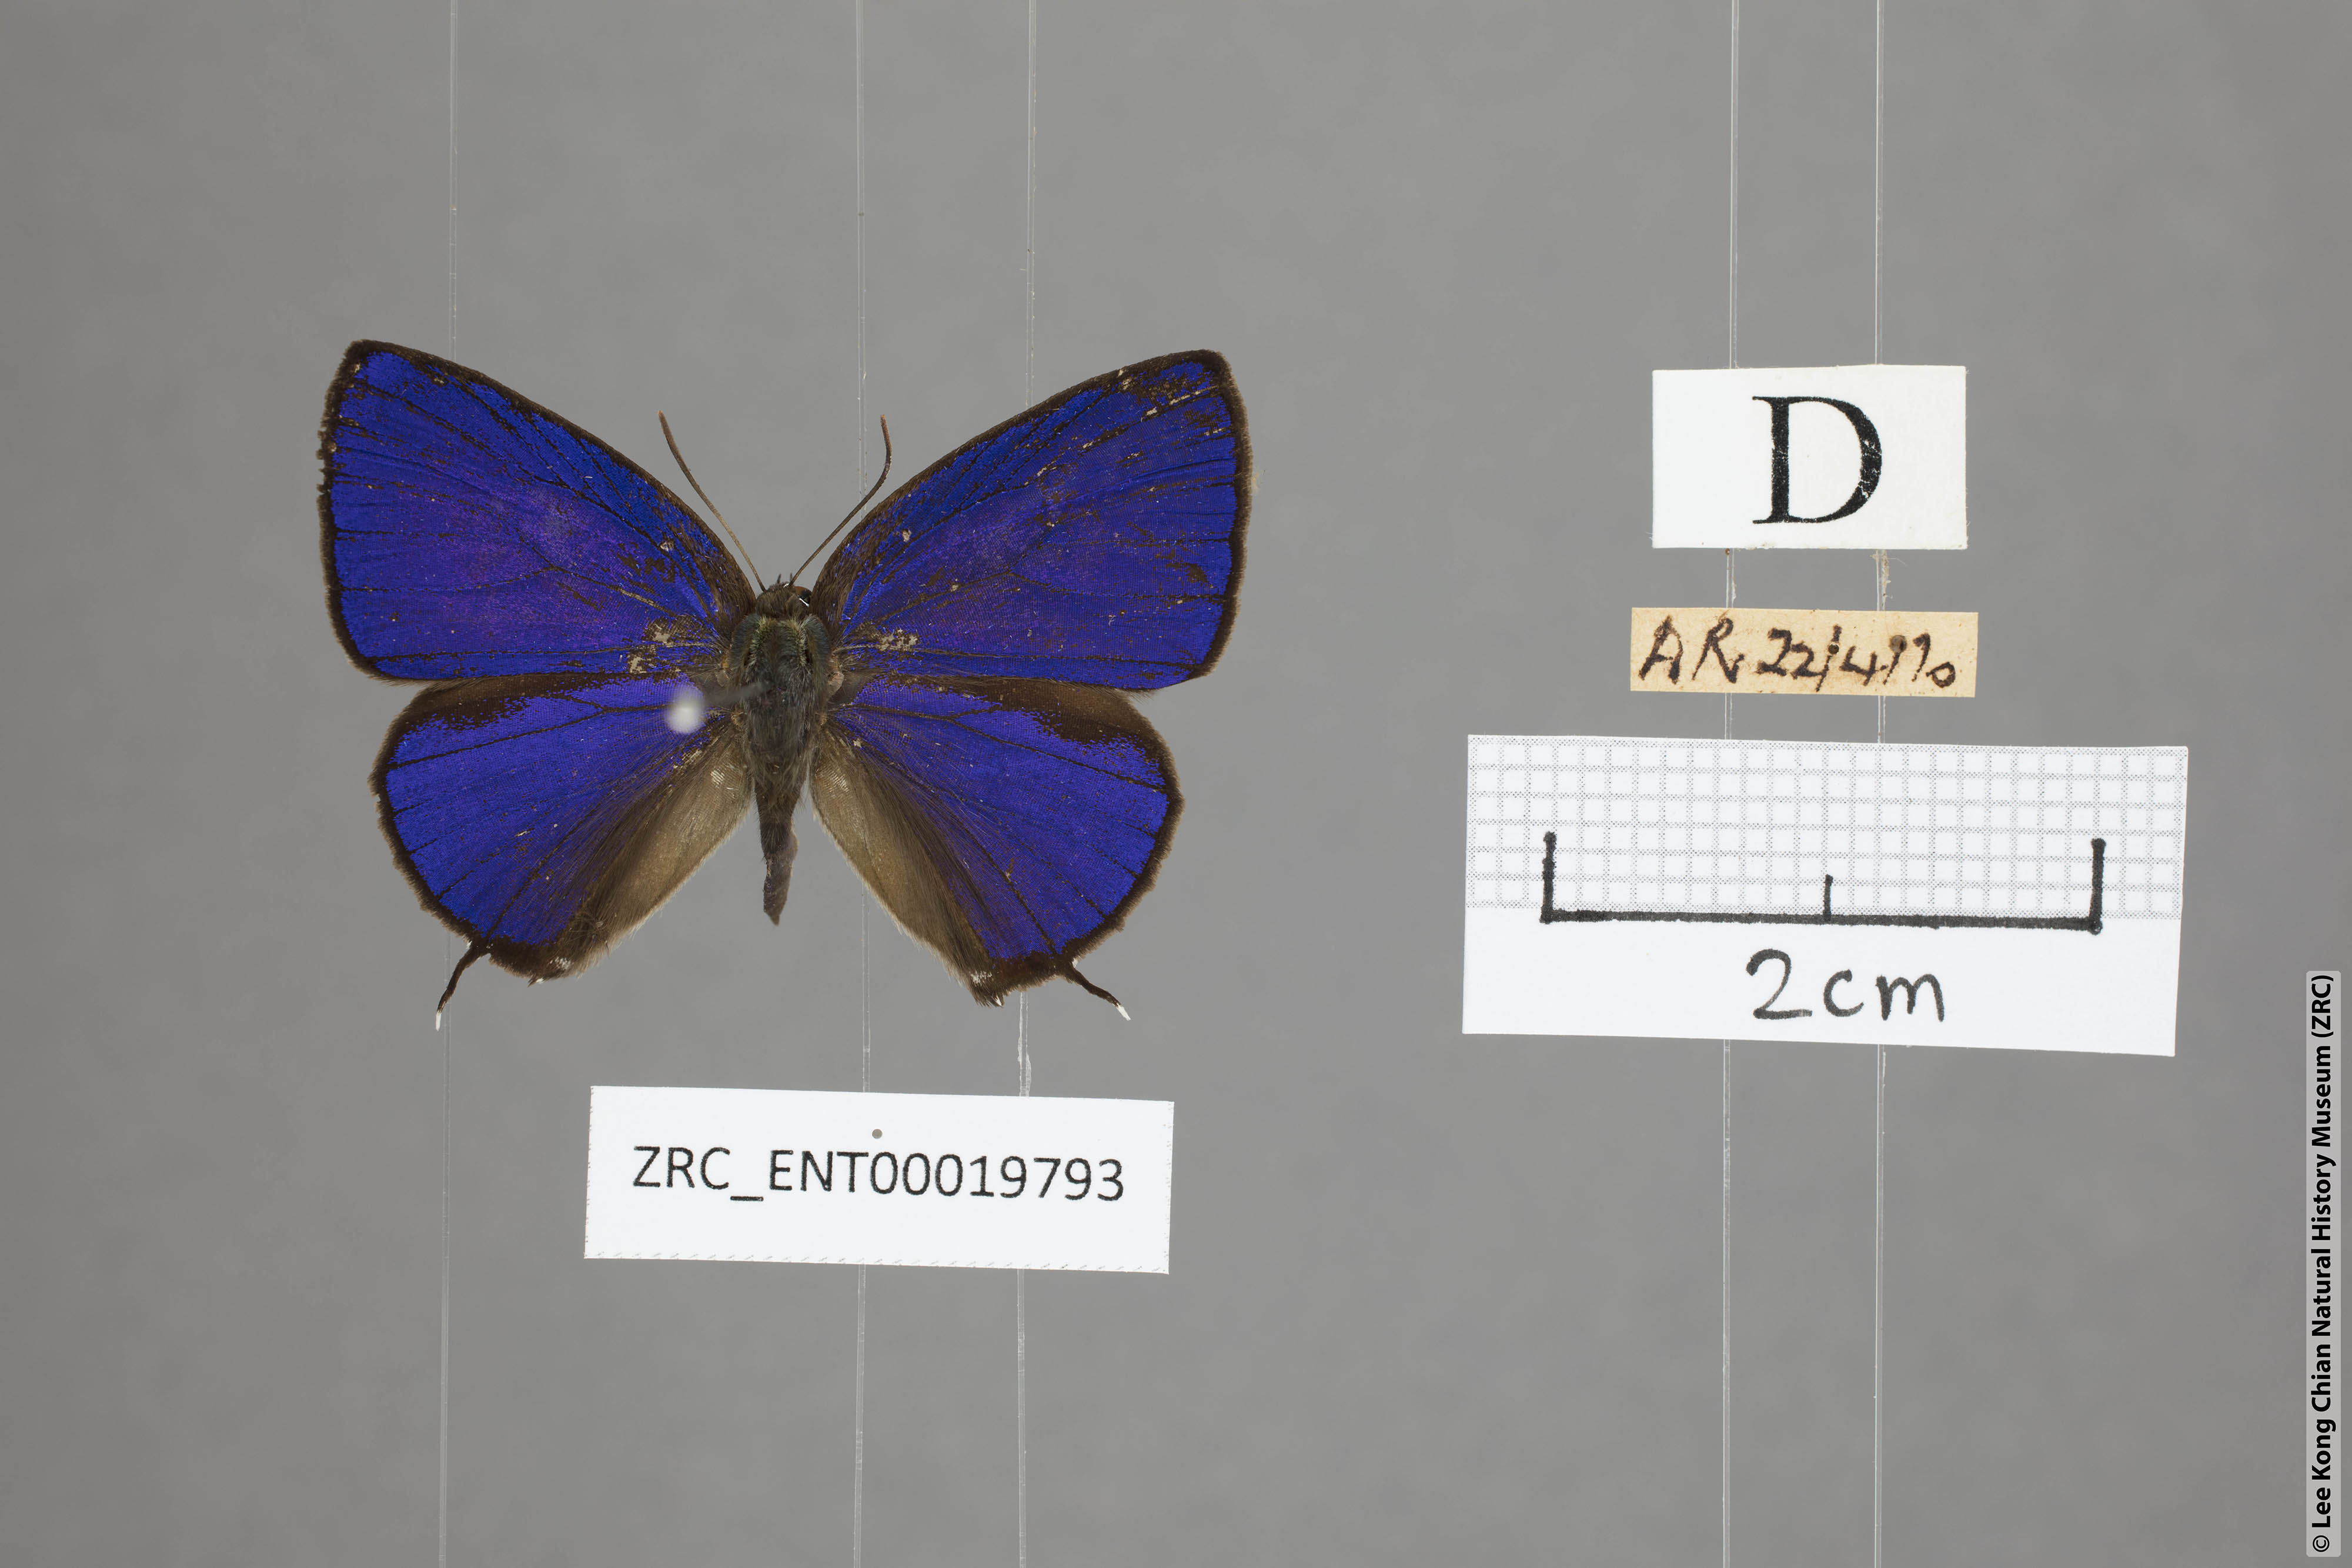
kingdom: Animalia
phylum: Arthropoda
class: Insecta
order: Lepidoptera
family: Lycaenidae
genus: Arhopala
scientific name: Arhopala phaenops
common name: Sumatran oakblue
